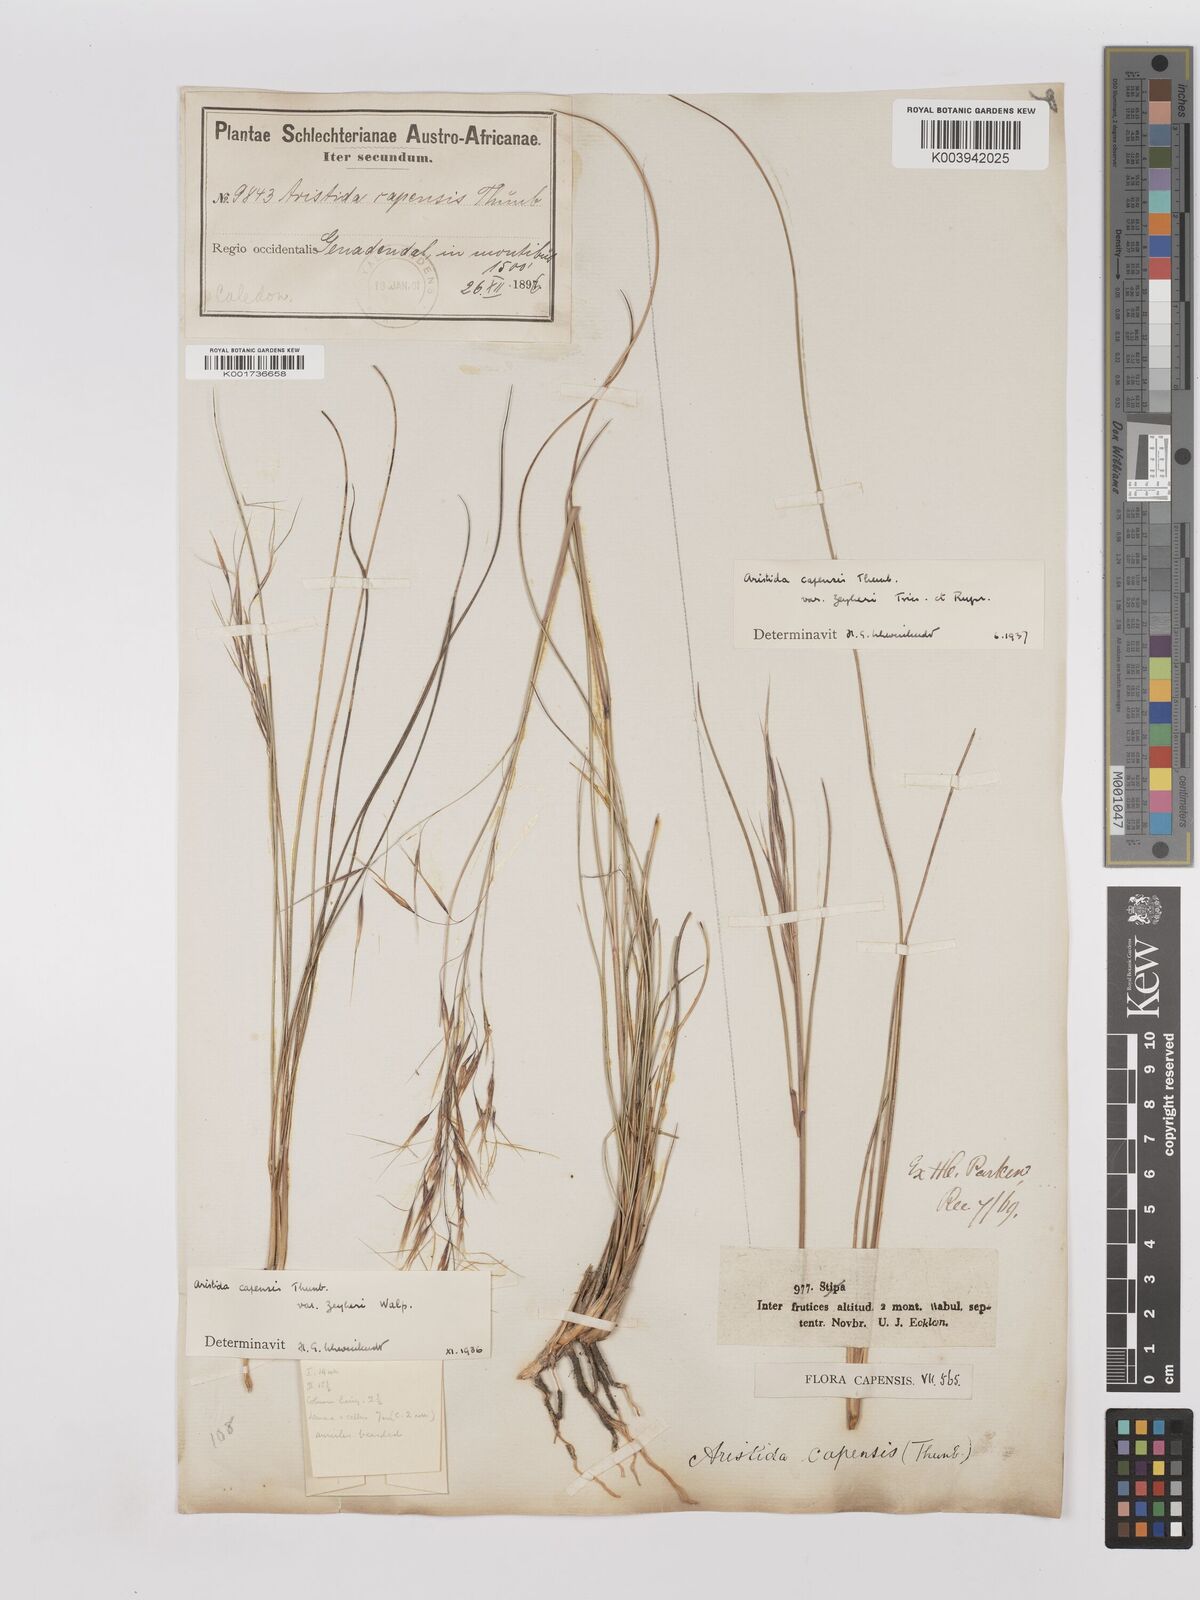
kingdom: Plantae
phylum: Tracheophyta
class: Liliopsida
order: Poales
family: Poaceae
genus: Stipagrostis
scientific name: Stipagrostis zeyheri
